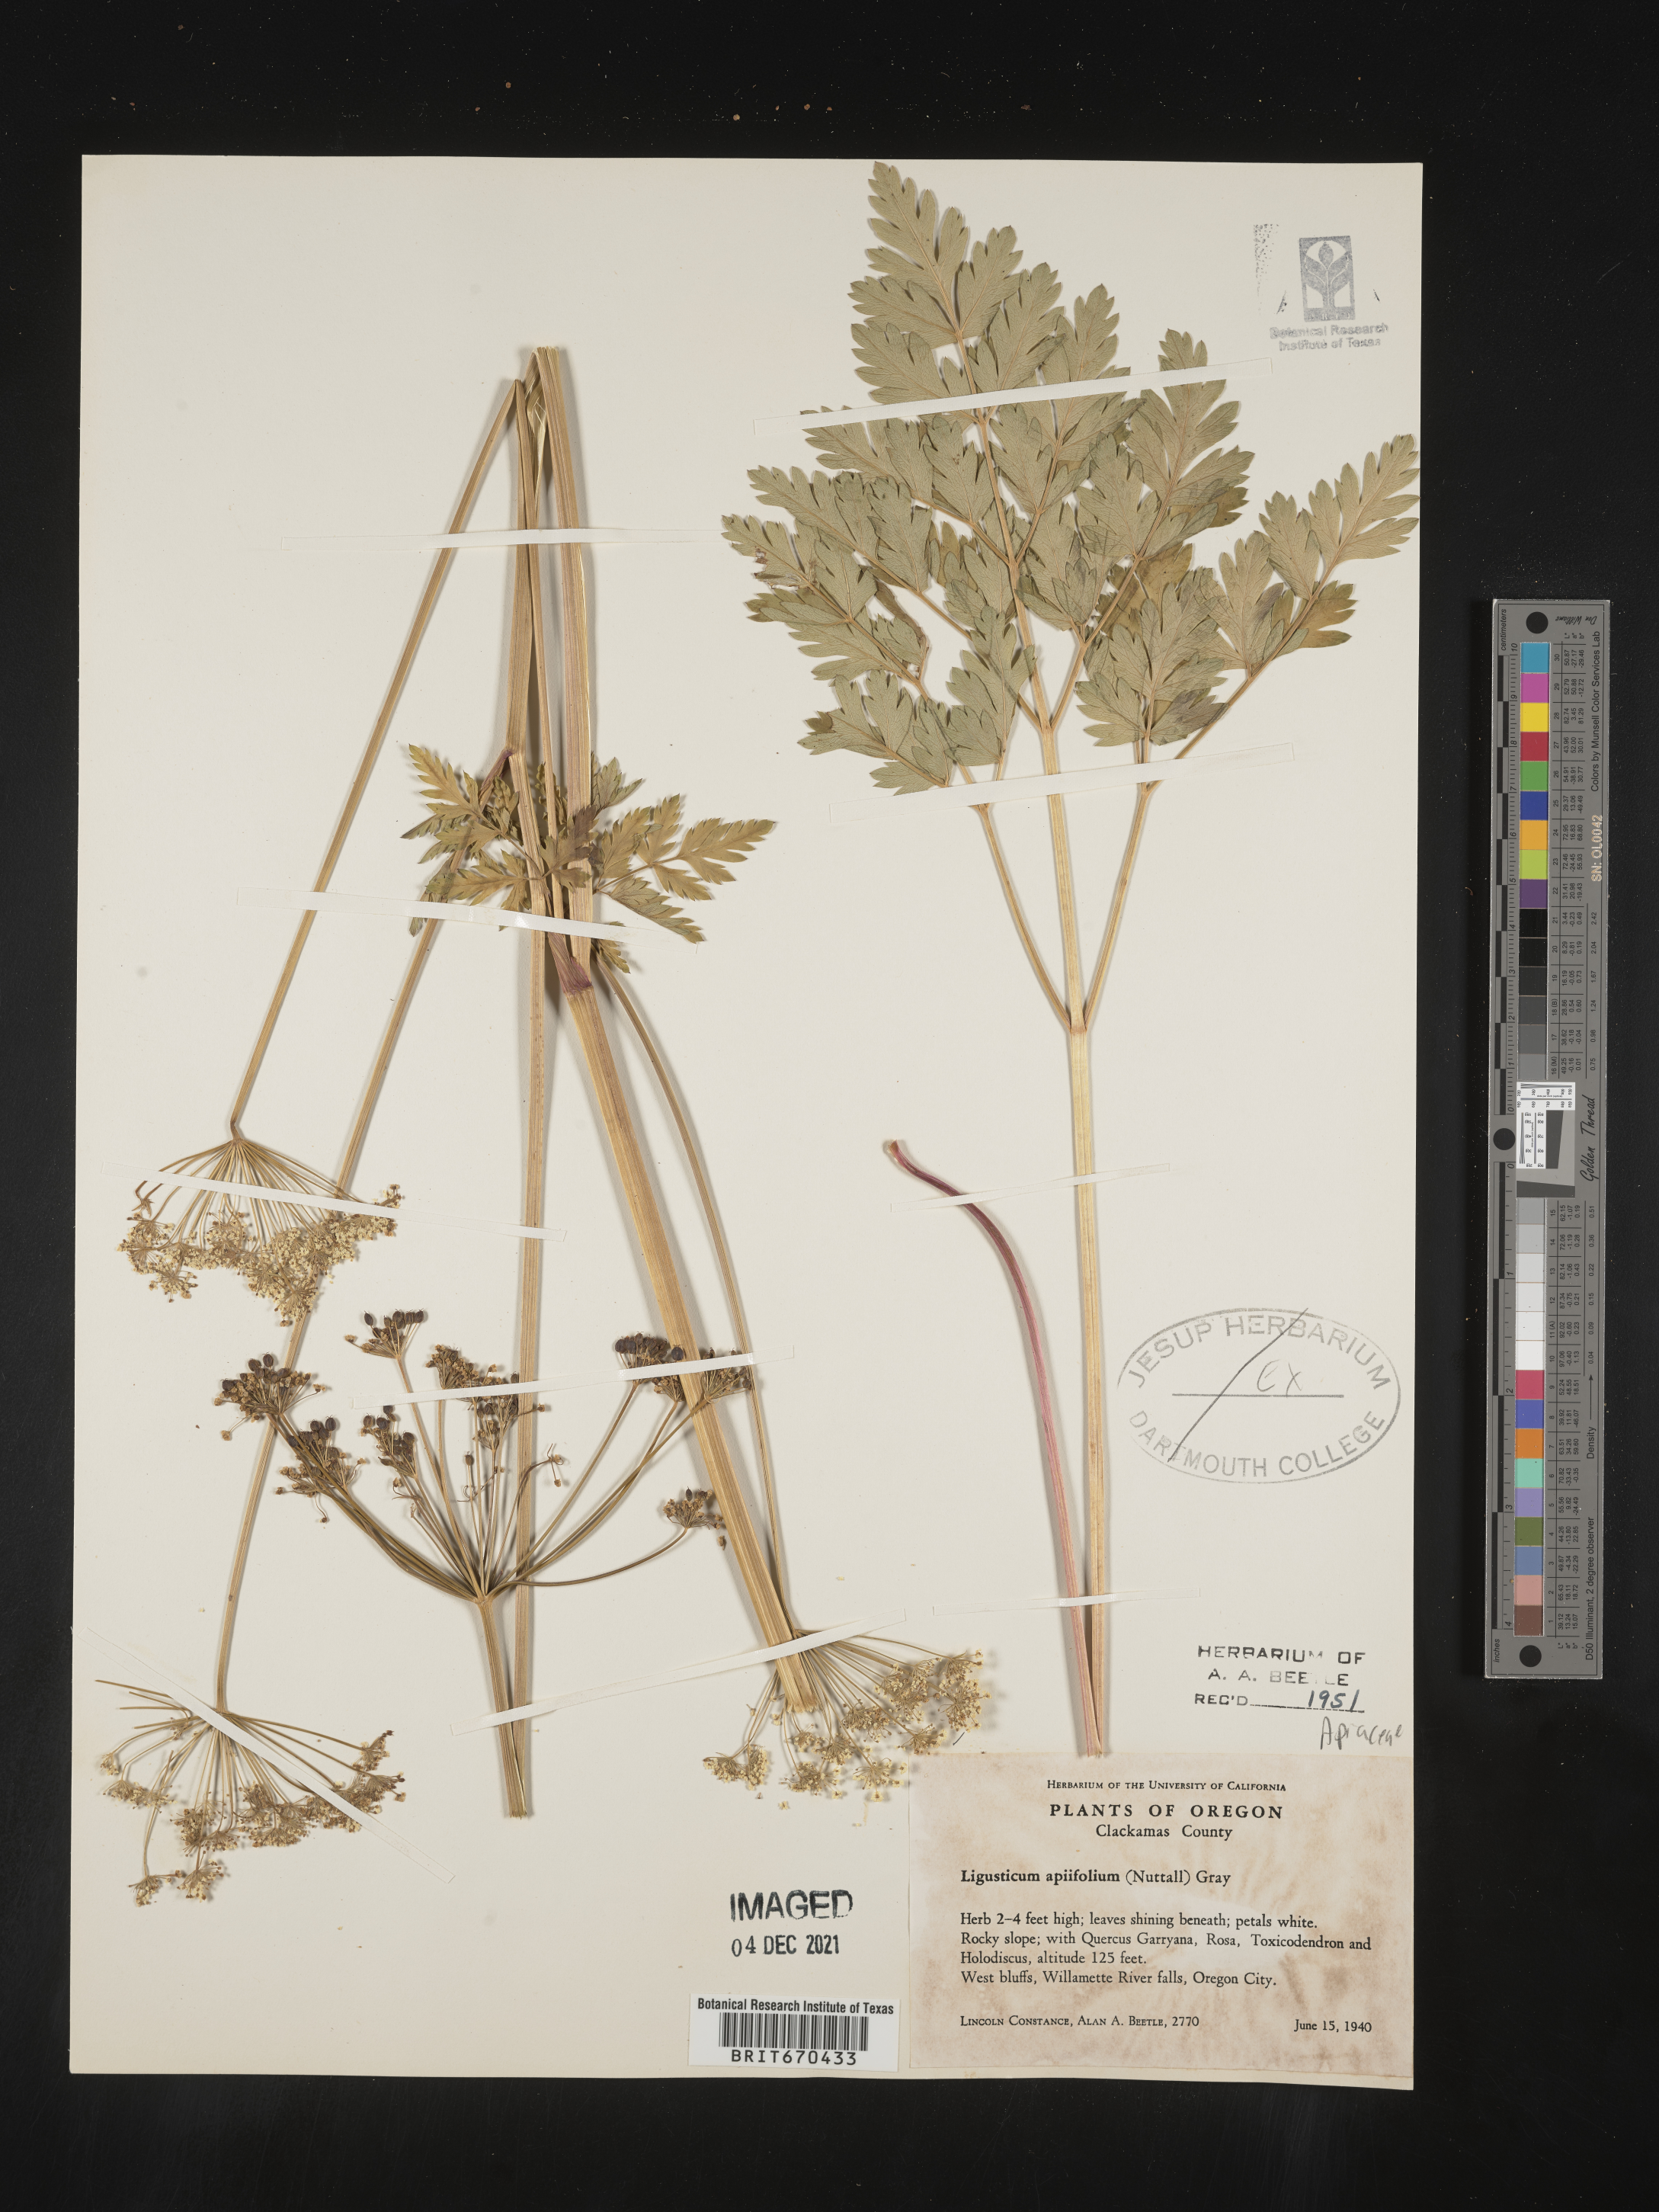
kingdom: Plantae
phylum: Tracheophyta
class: Magnoliopsida
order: Apiales
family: Apiaceae
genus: Ligusticum
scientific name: Ligusticum
